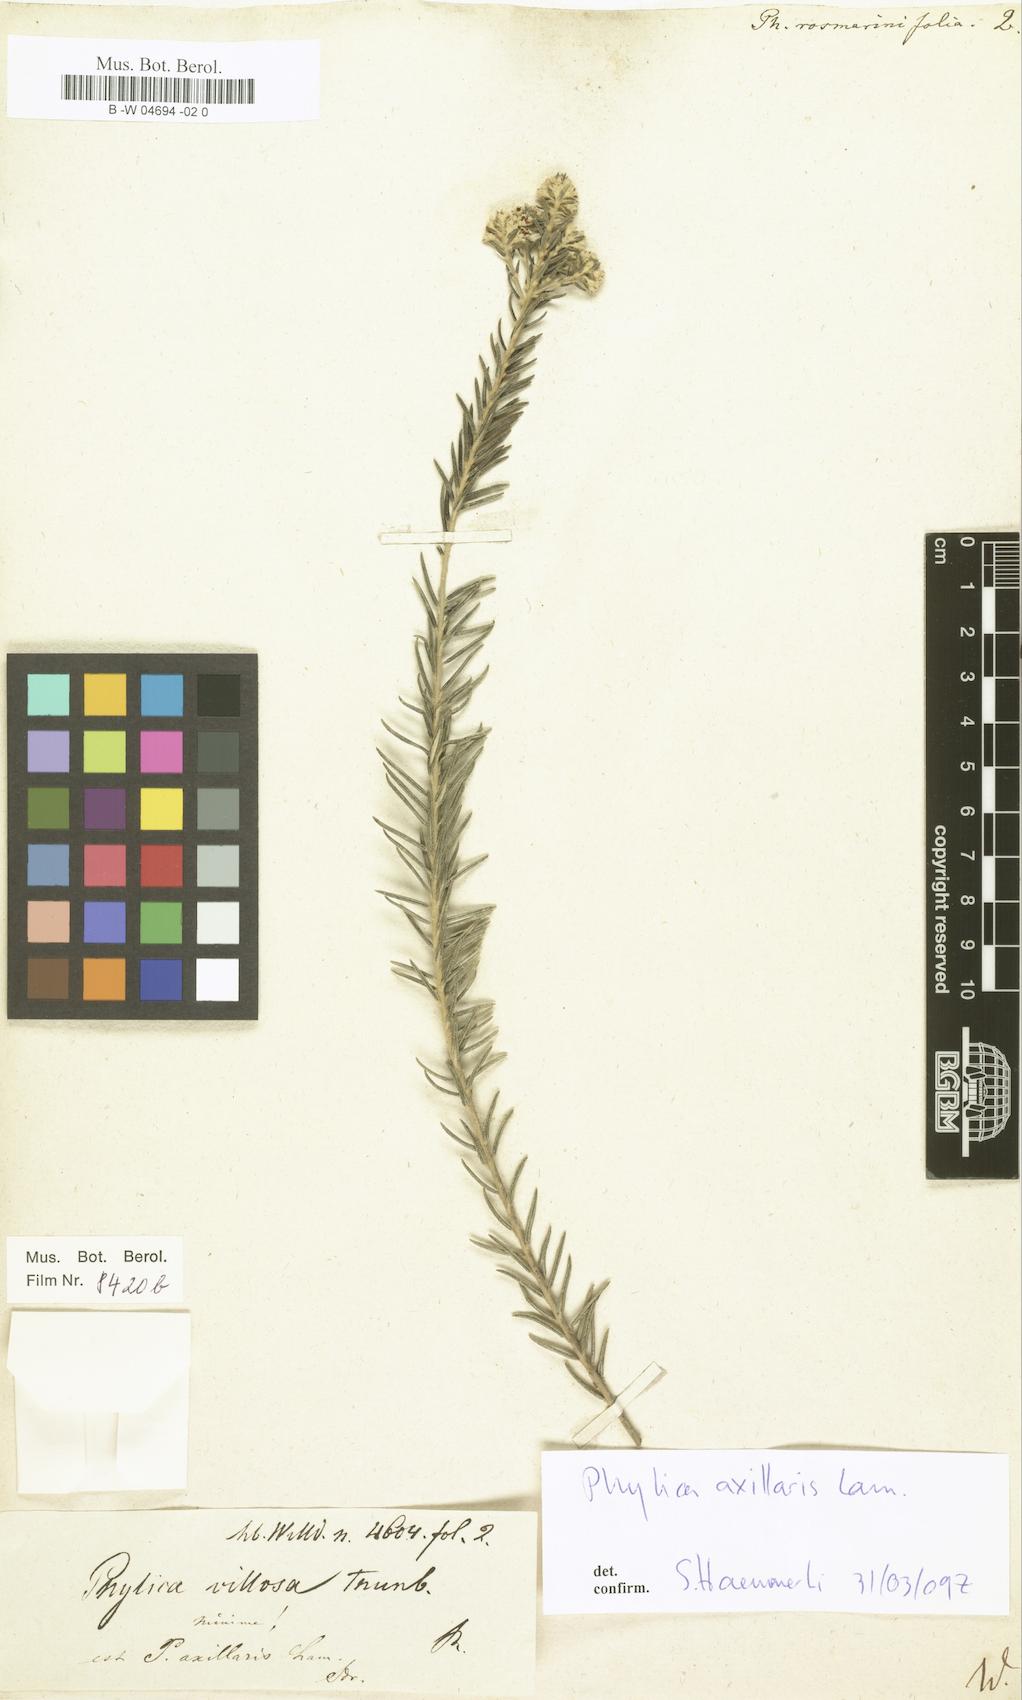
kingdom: Plantae
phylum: Tracheophyta
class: Magnoliopsida
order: Rosales
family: Rhamnaceae
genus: Phylica
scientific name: Phylica
